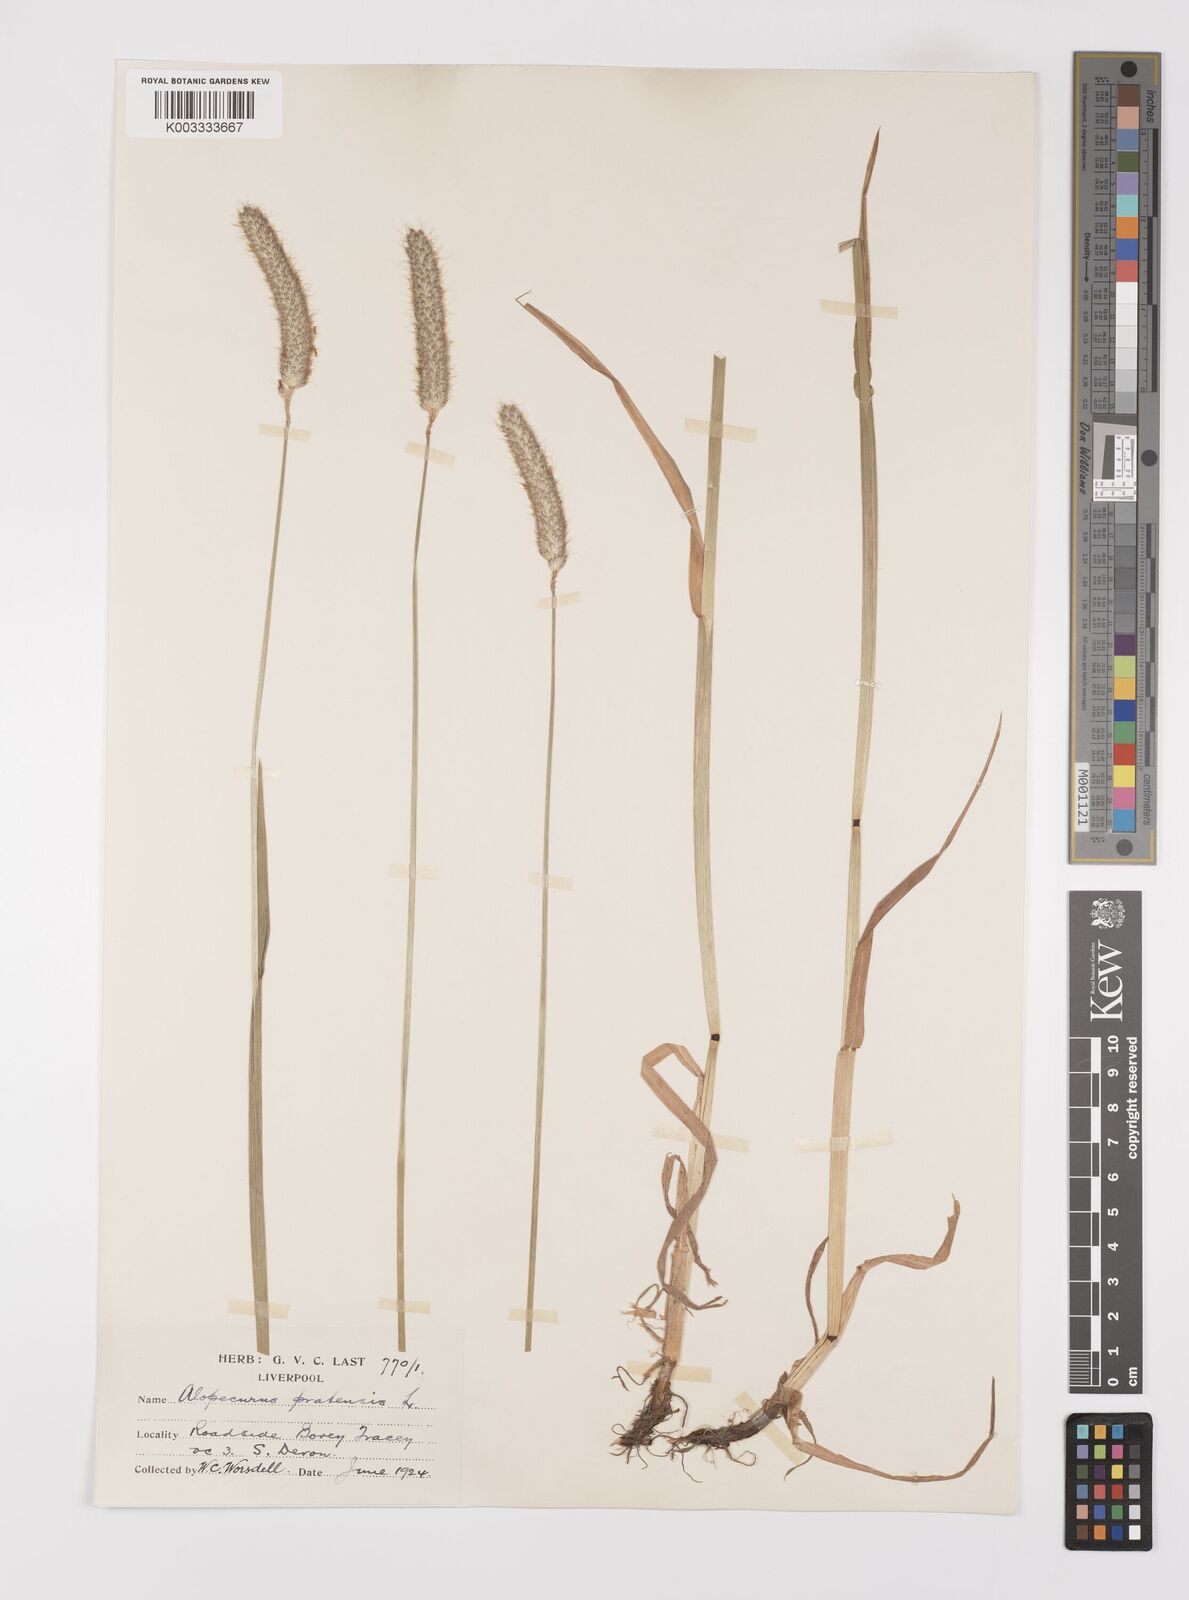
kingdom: Plantae
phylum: Tracheophyta
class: Liliopsida
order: Poales
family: Poaceae
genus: Alopecurus
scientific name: Alopecurus pratensis
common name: Meadow foxtail
